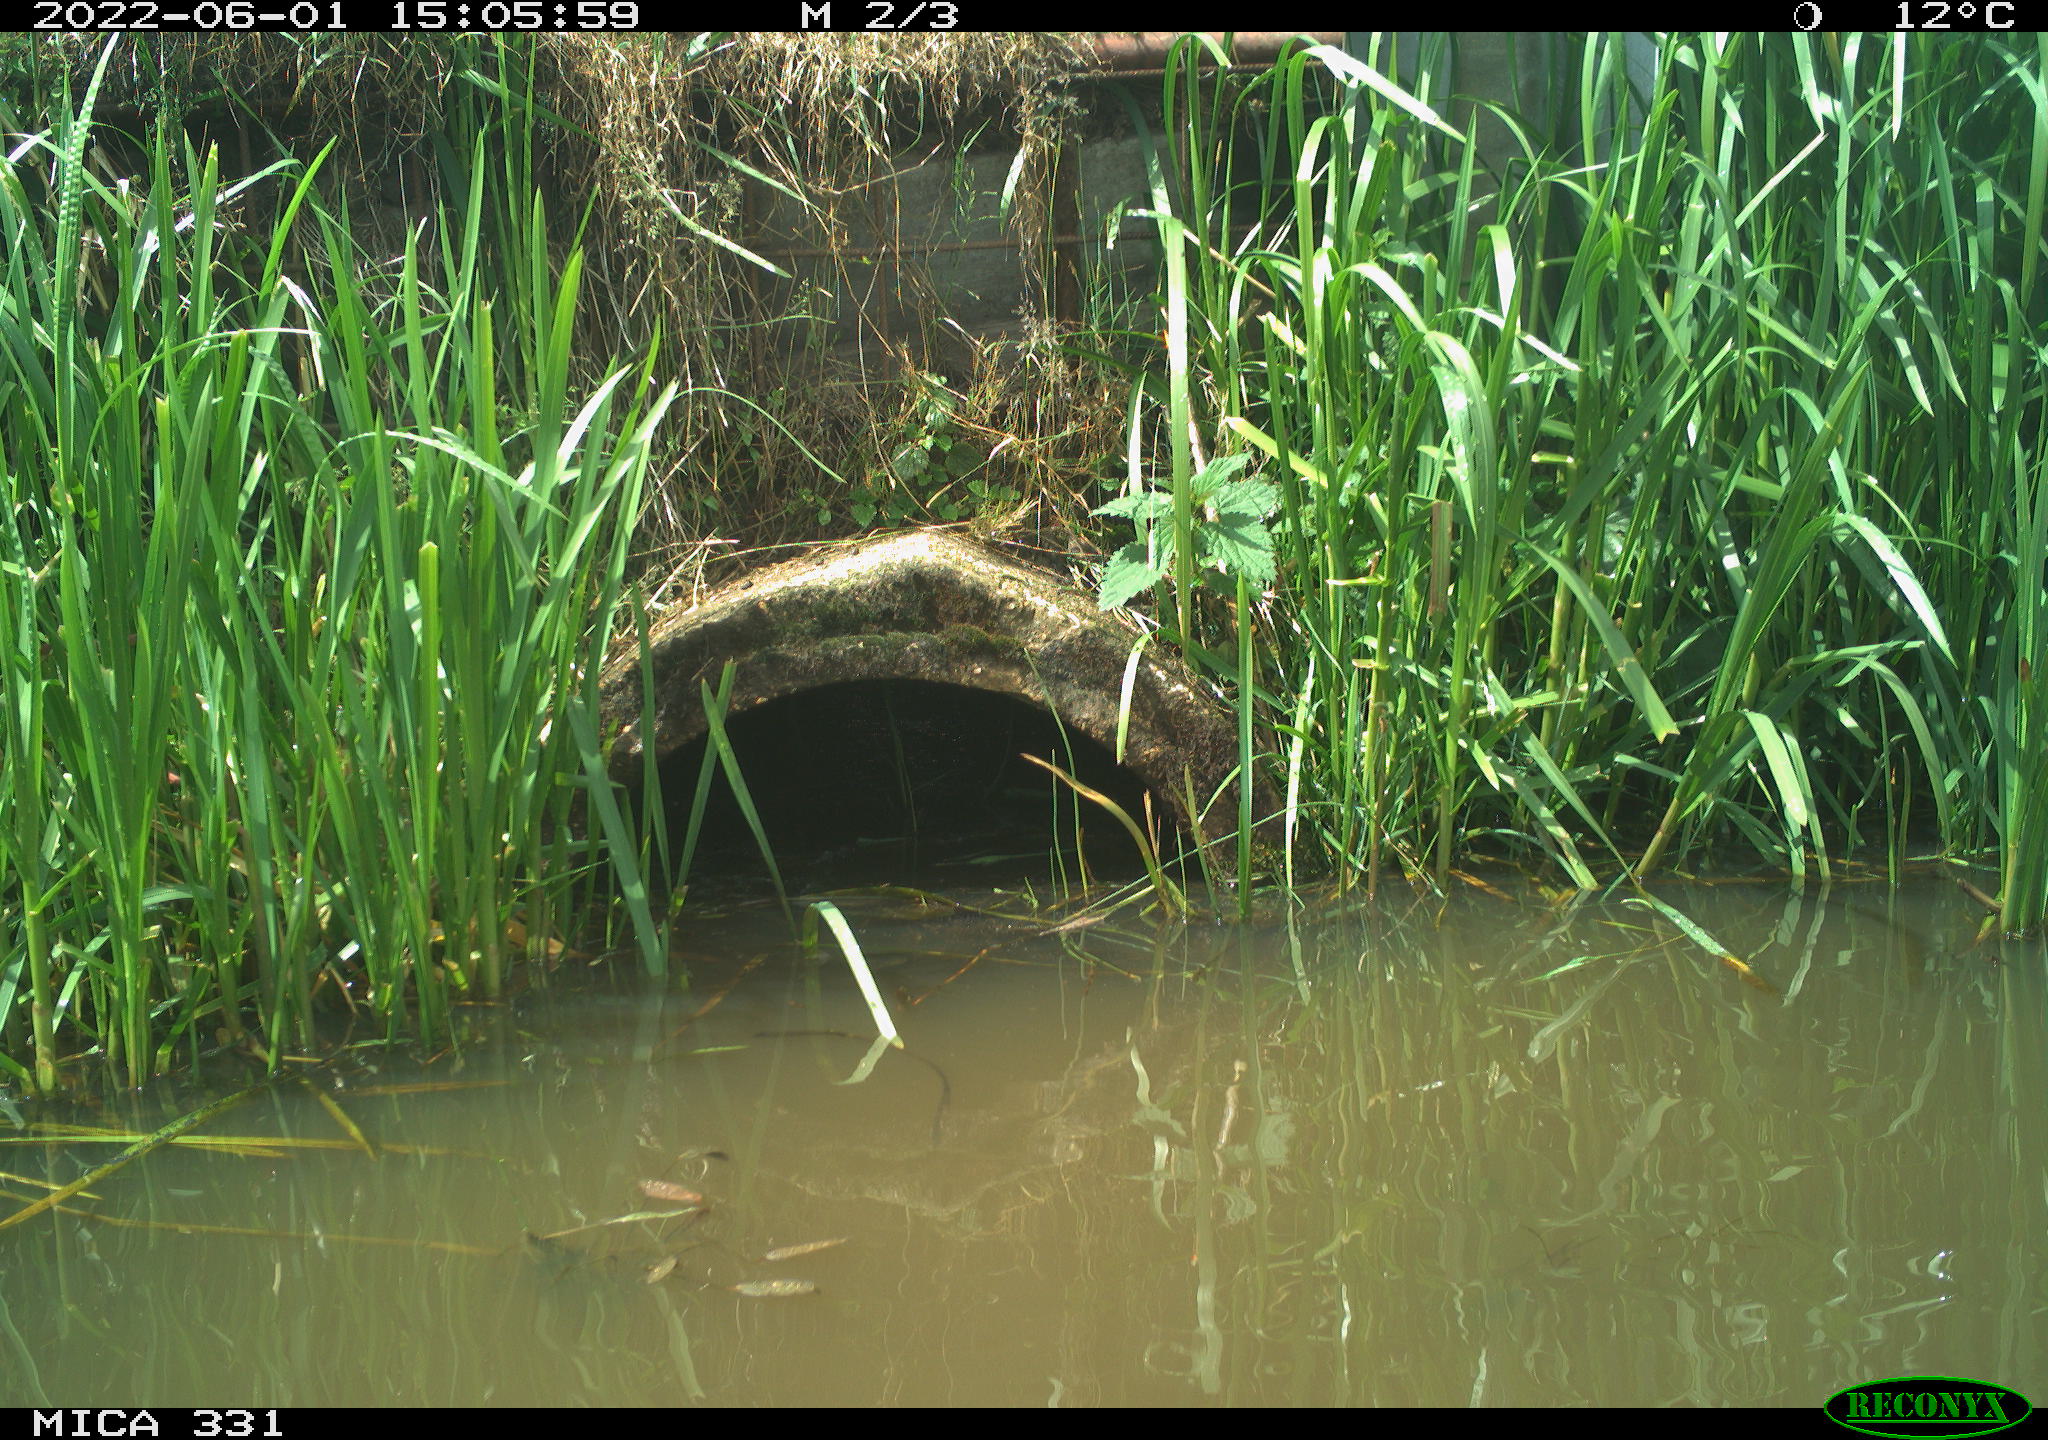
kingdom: Animalia
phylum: Chordata
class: Aves
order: Gruiformes
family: Rallidae
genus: Fulica
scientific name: Fulica atra
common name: Eurasian coot
